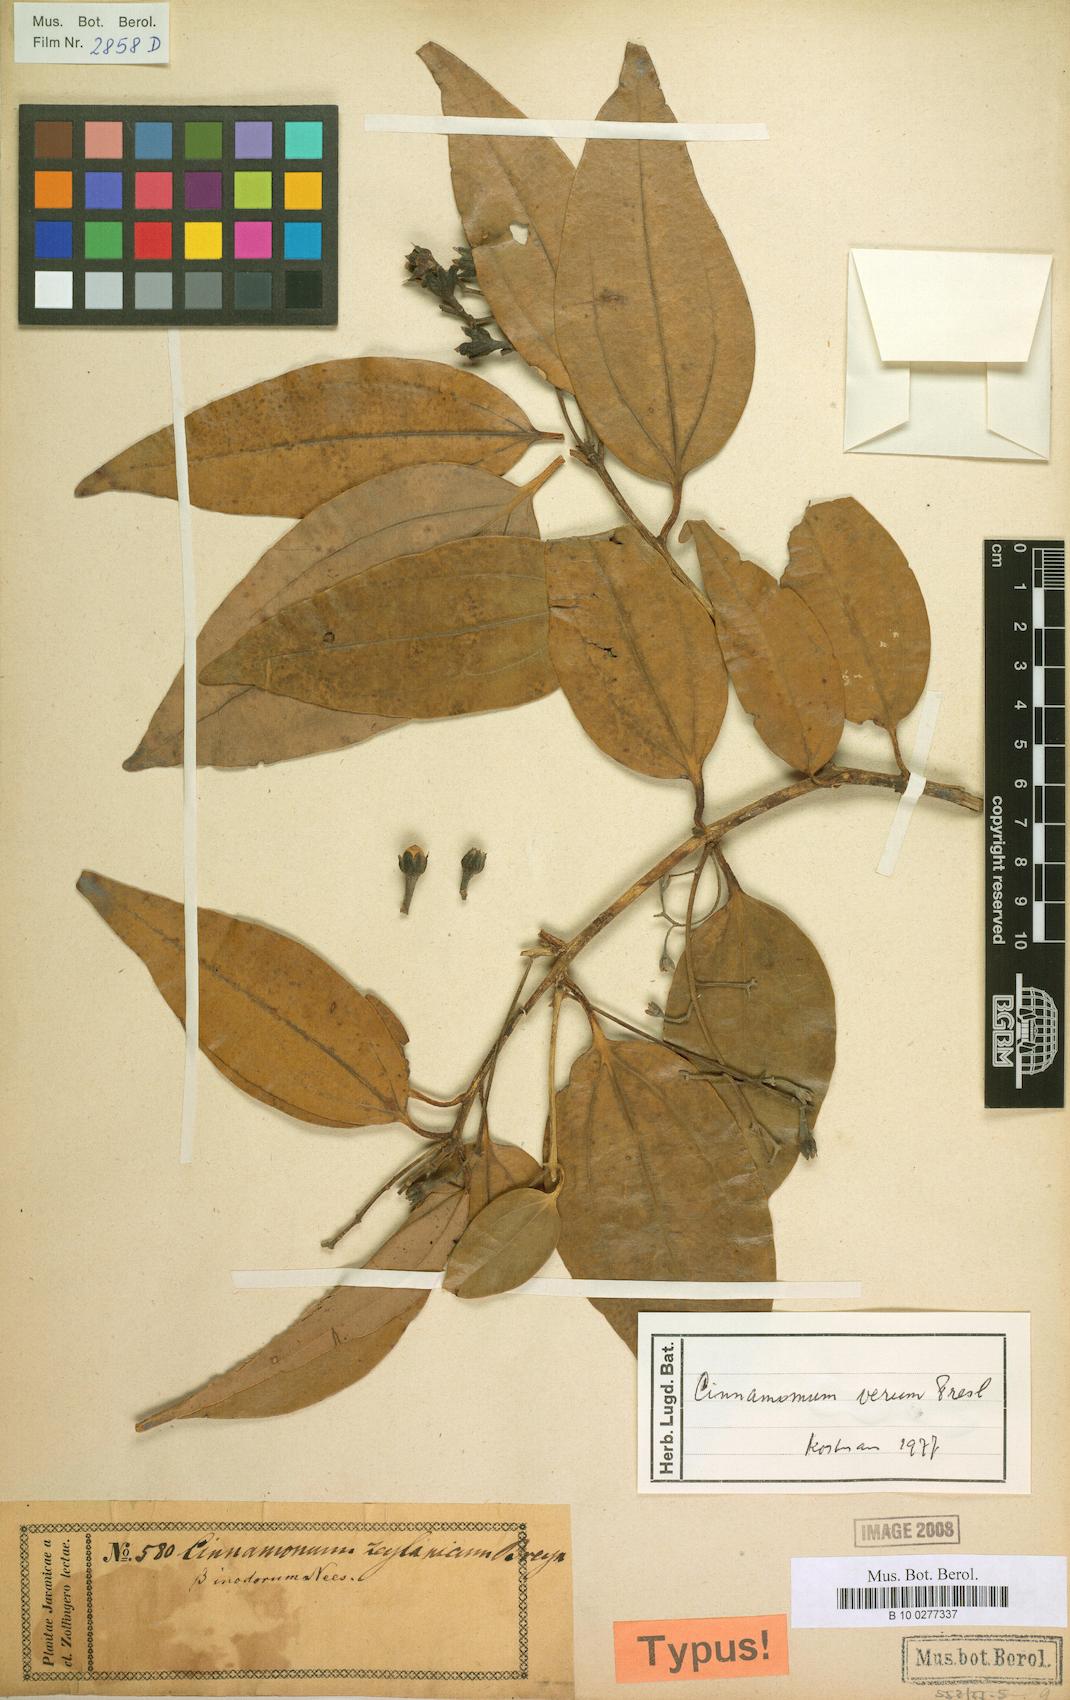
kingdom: Plantae
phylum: Tracheophyta
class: Magnoliopsida
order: Laurales
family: Lauraceae
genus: Cinnamomum
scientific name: Cinnamomum verum
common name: Cinnamon
